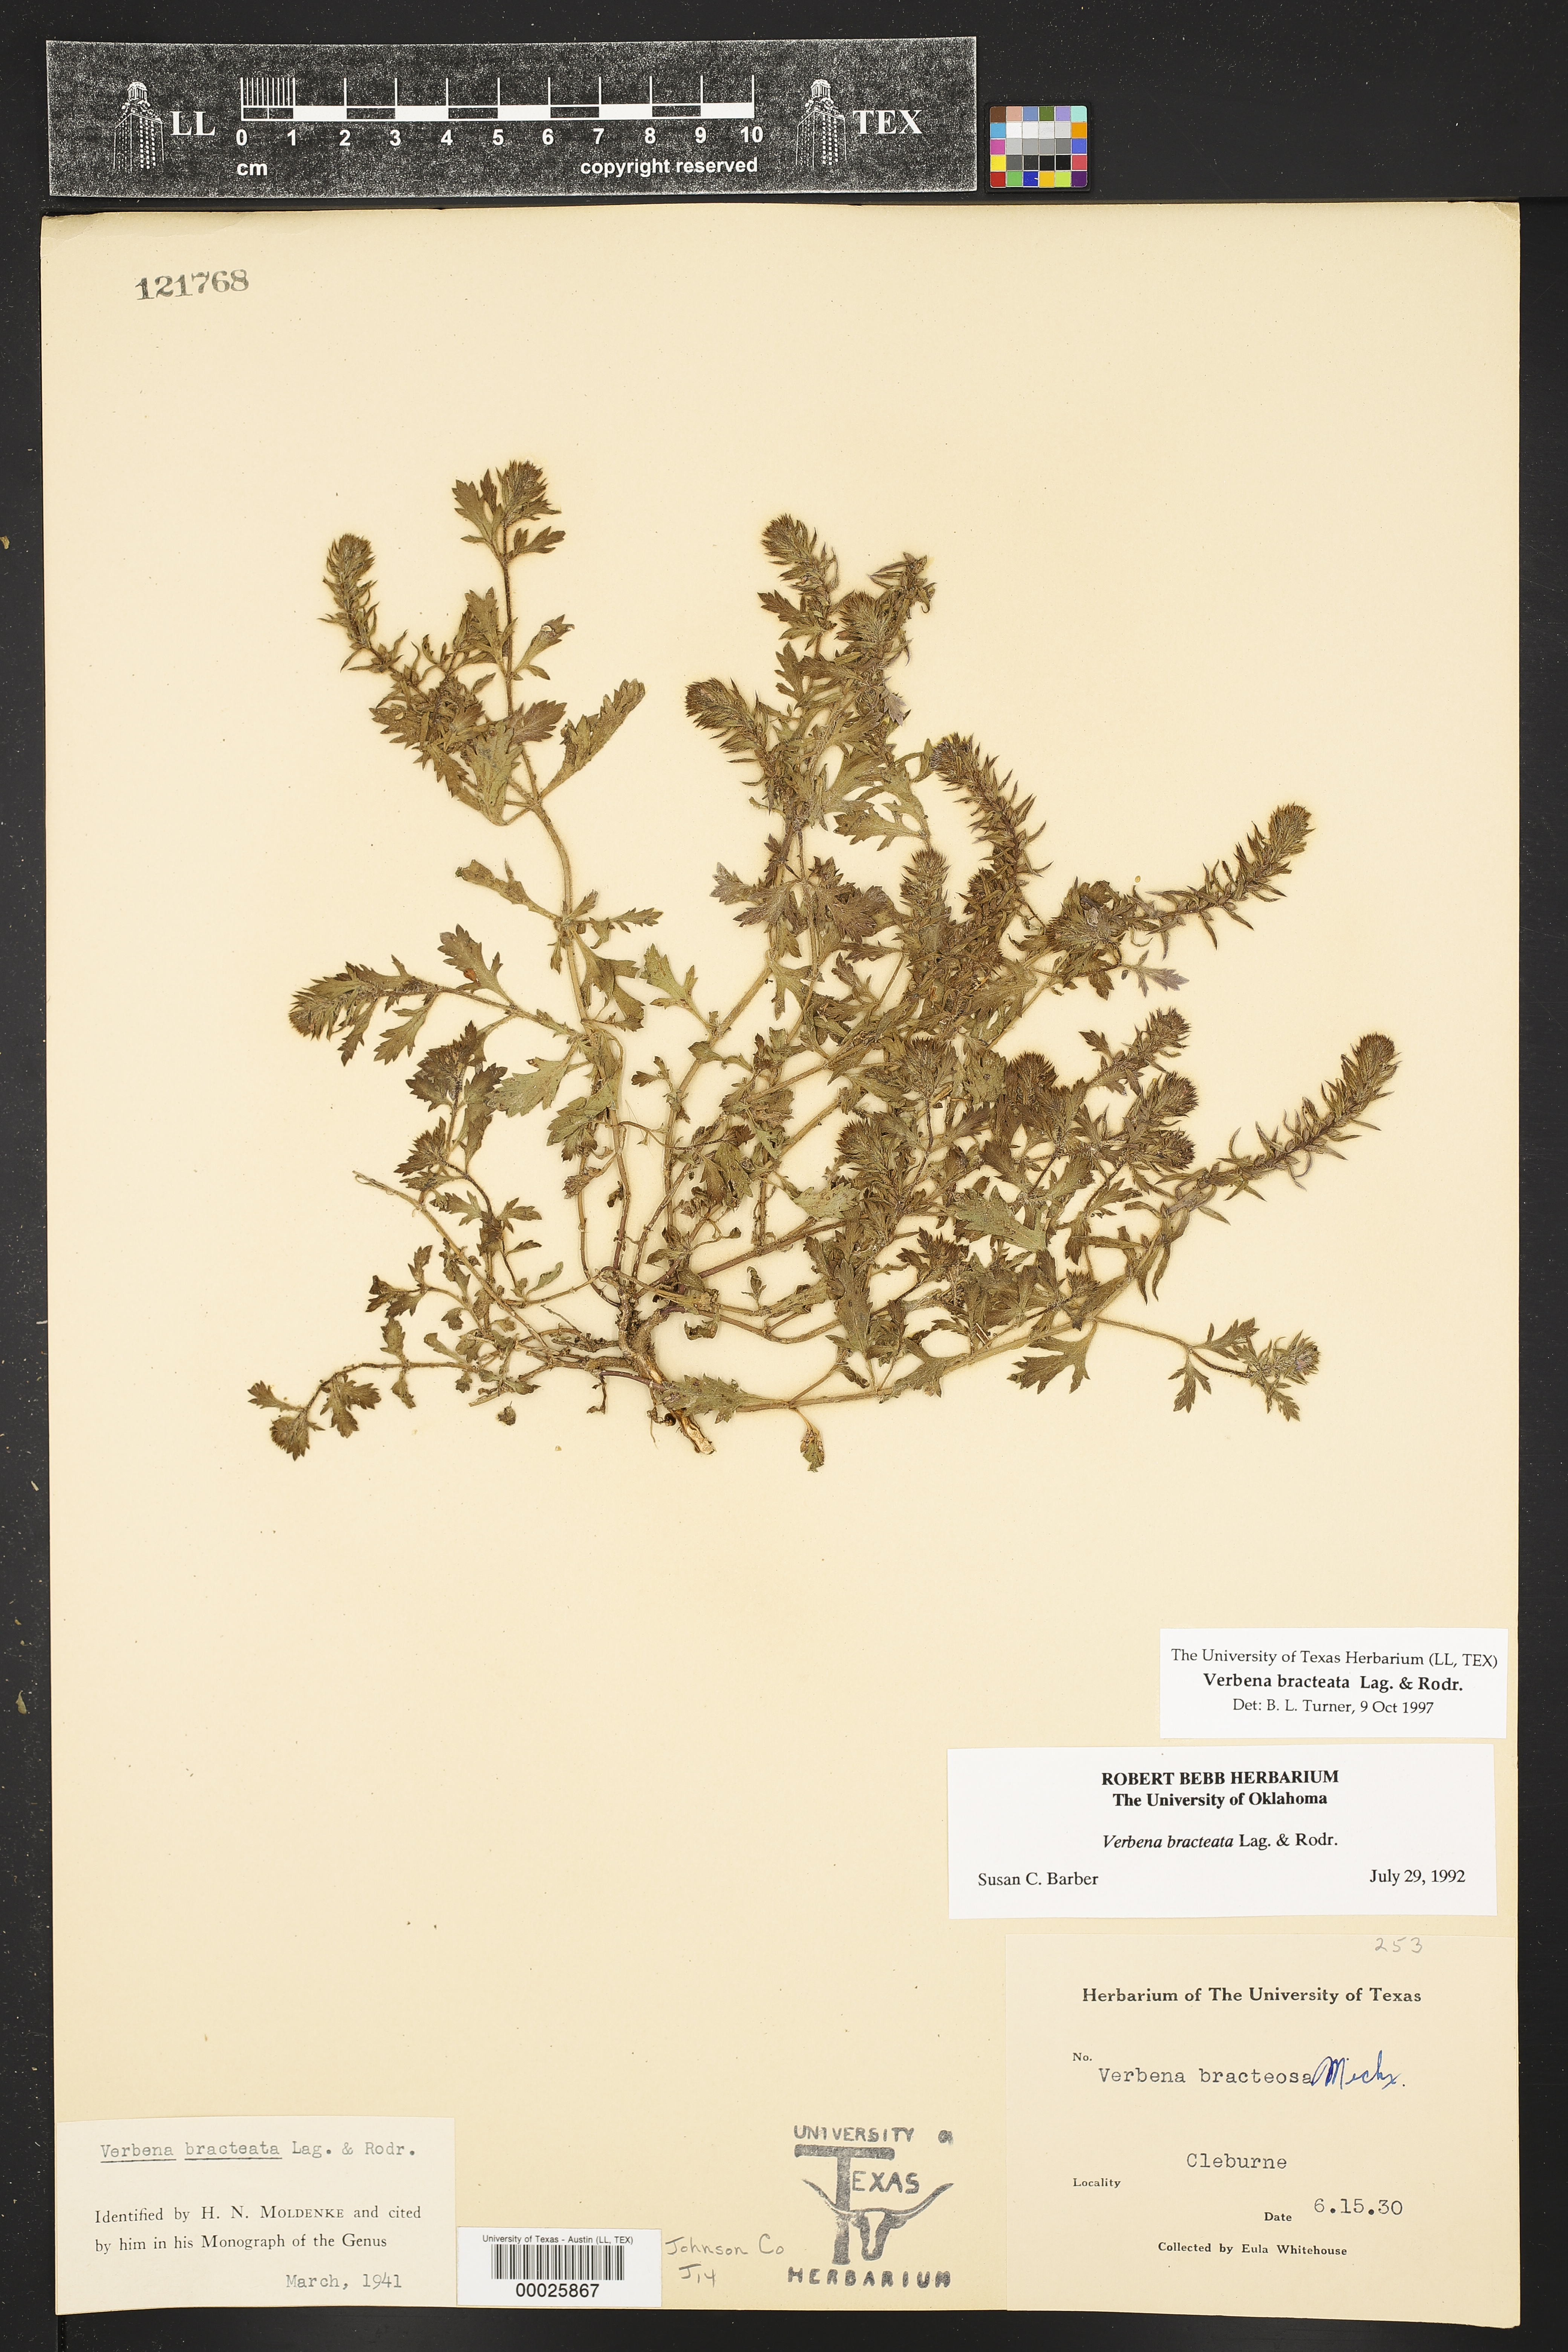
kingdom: Plantae
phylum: Tracheophyta
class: Magnoliopsida
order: Lamiales
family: Verbenaceae
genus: Verbena
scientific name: Verbena bracteata
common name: Bracted vervain
